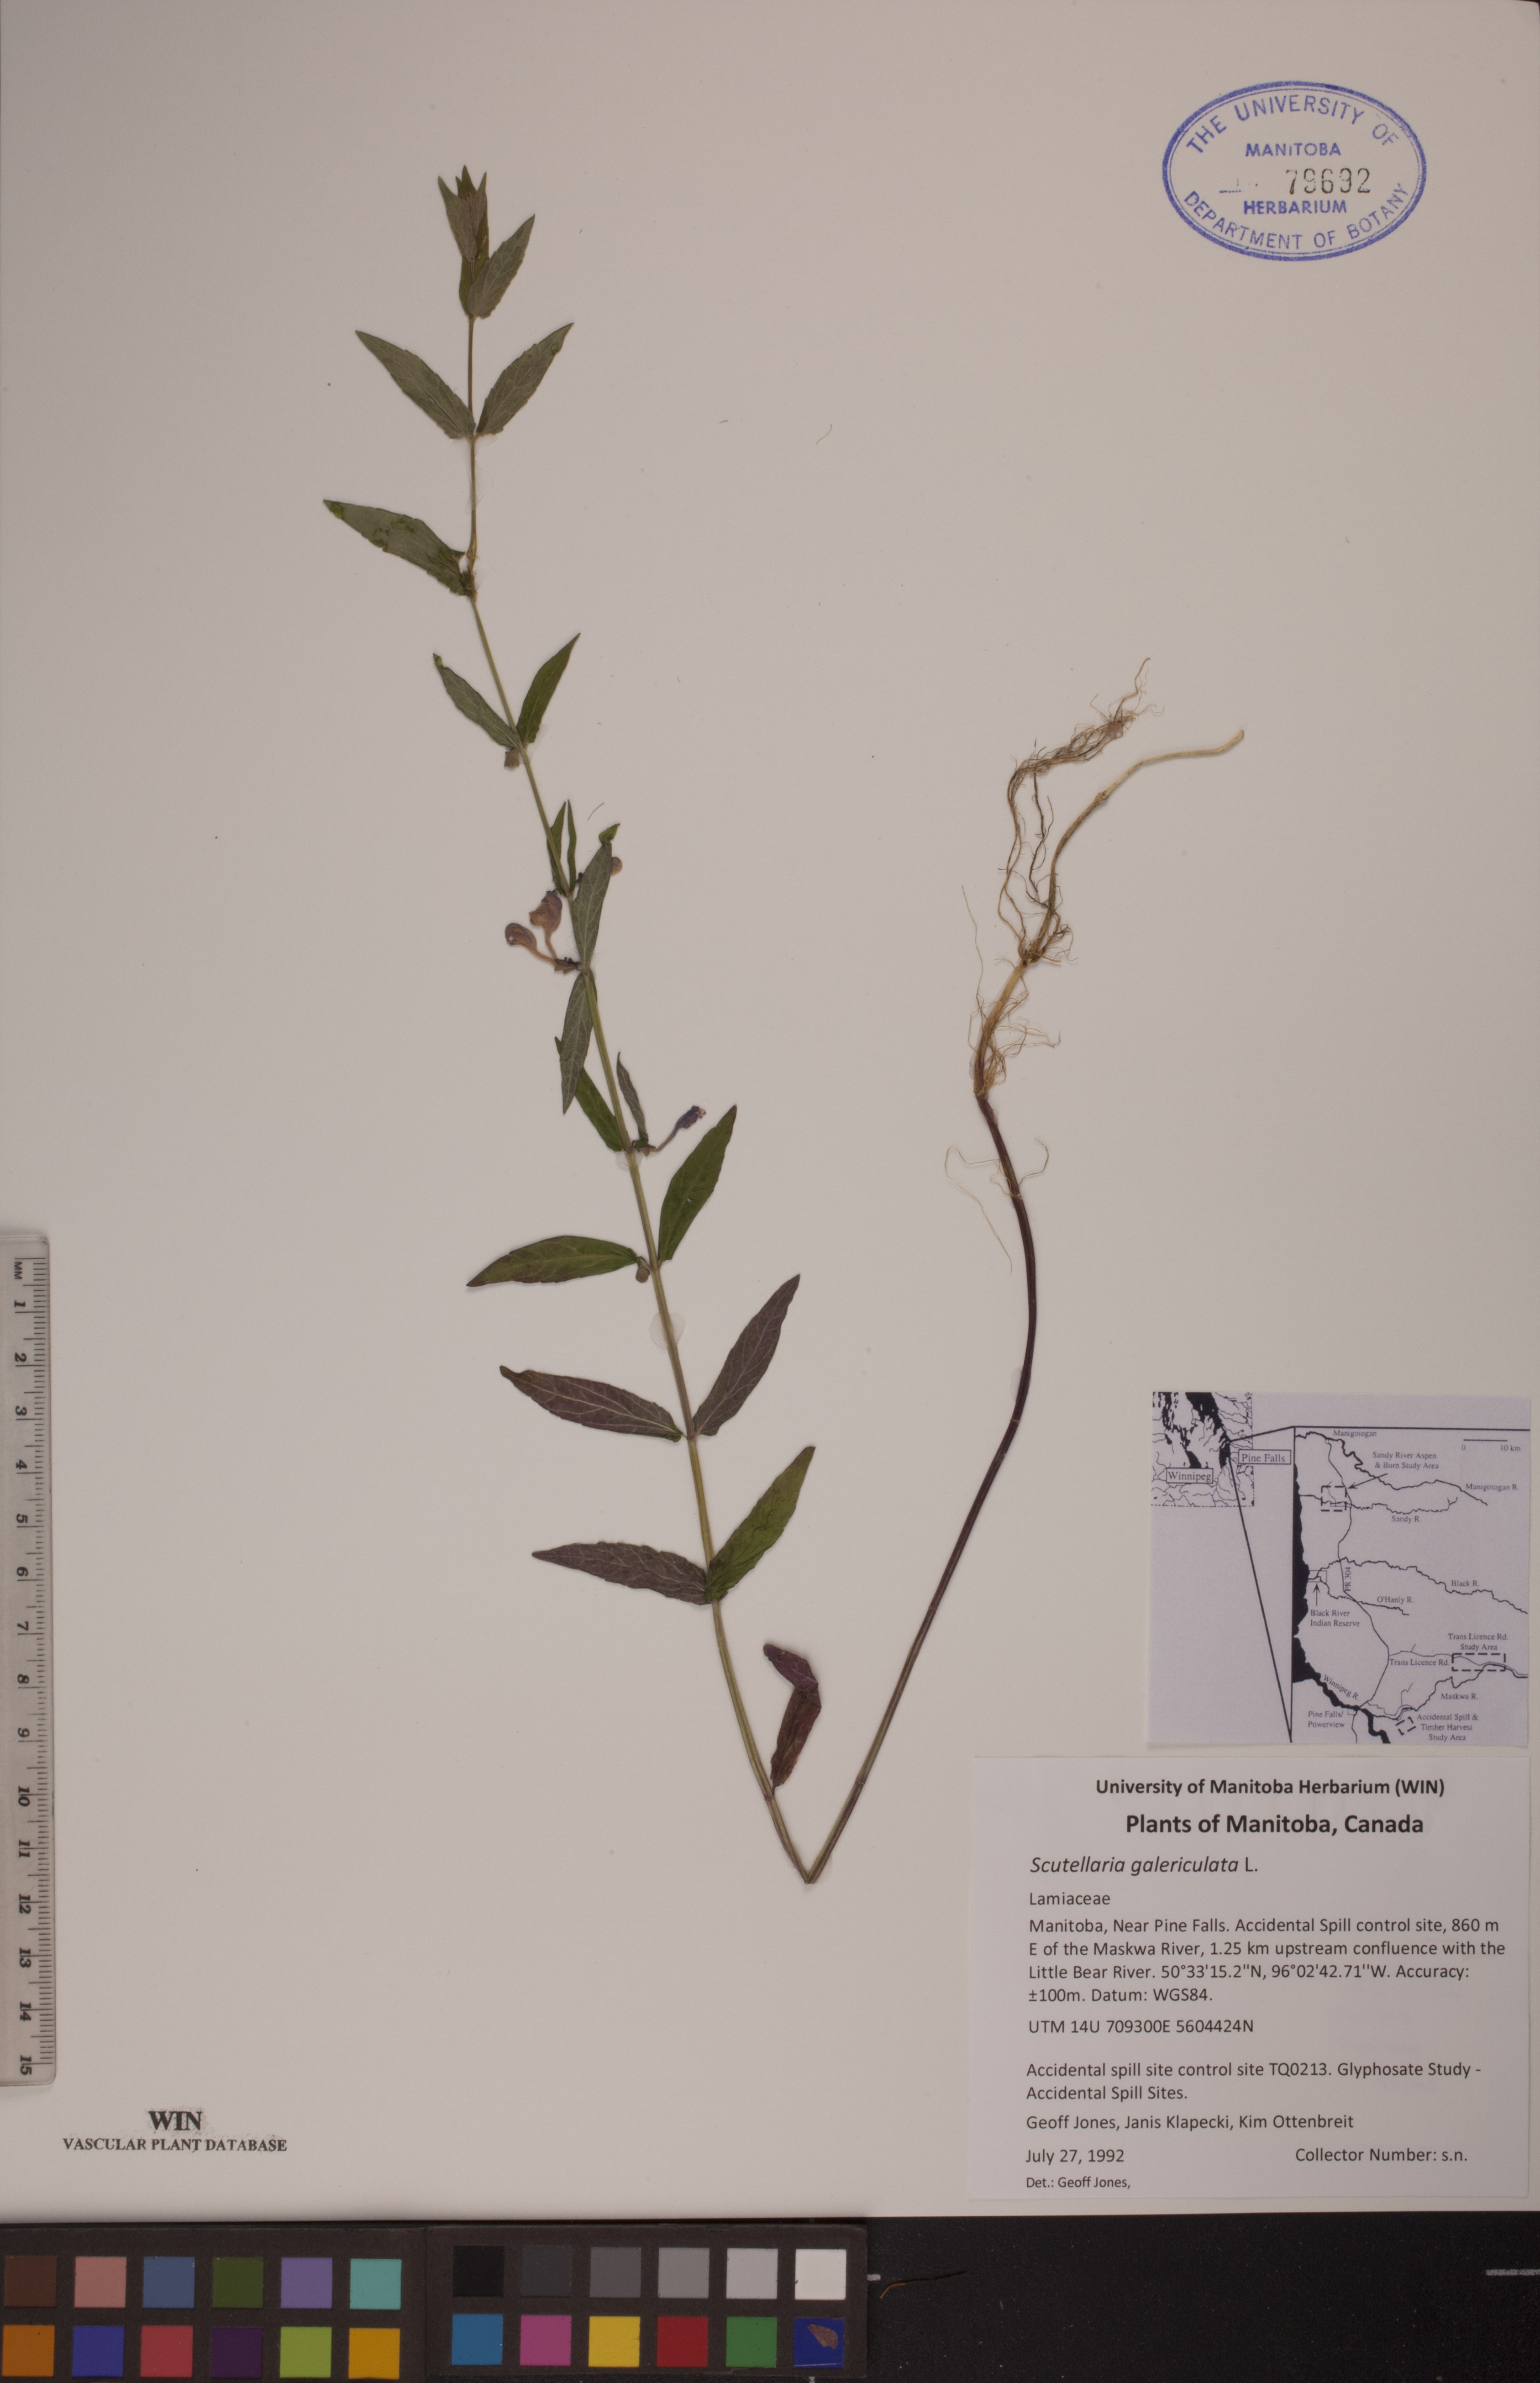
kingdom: Plantae
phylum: Tracheophyta
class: Magnoliopsida
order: Lamiales
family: Lamiaceae
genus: Scutellaria
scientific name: Scutellaria galericulata
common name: Skullcap
